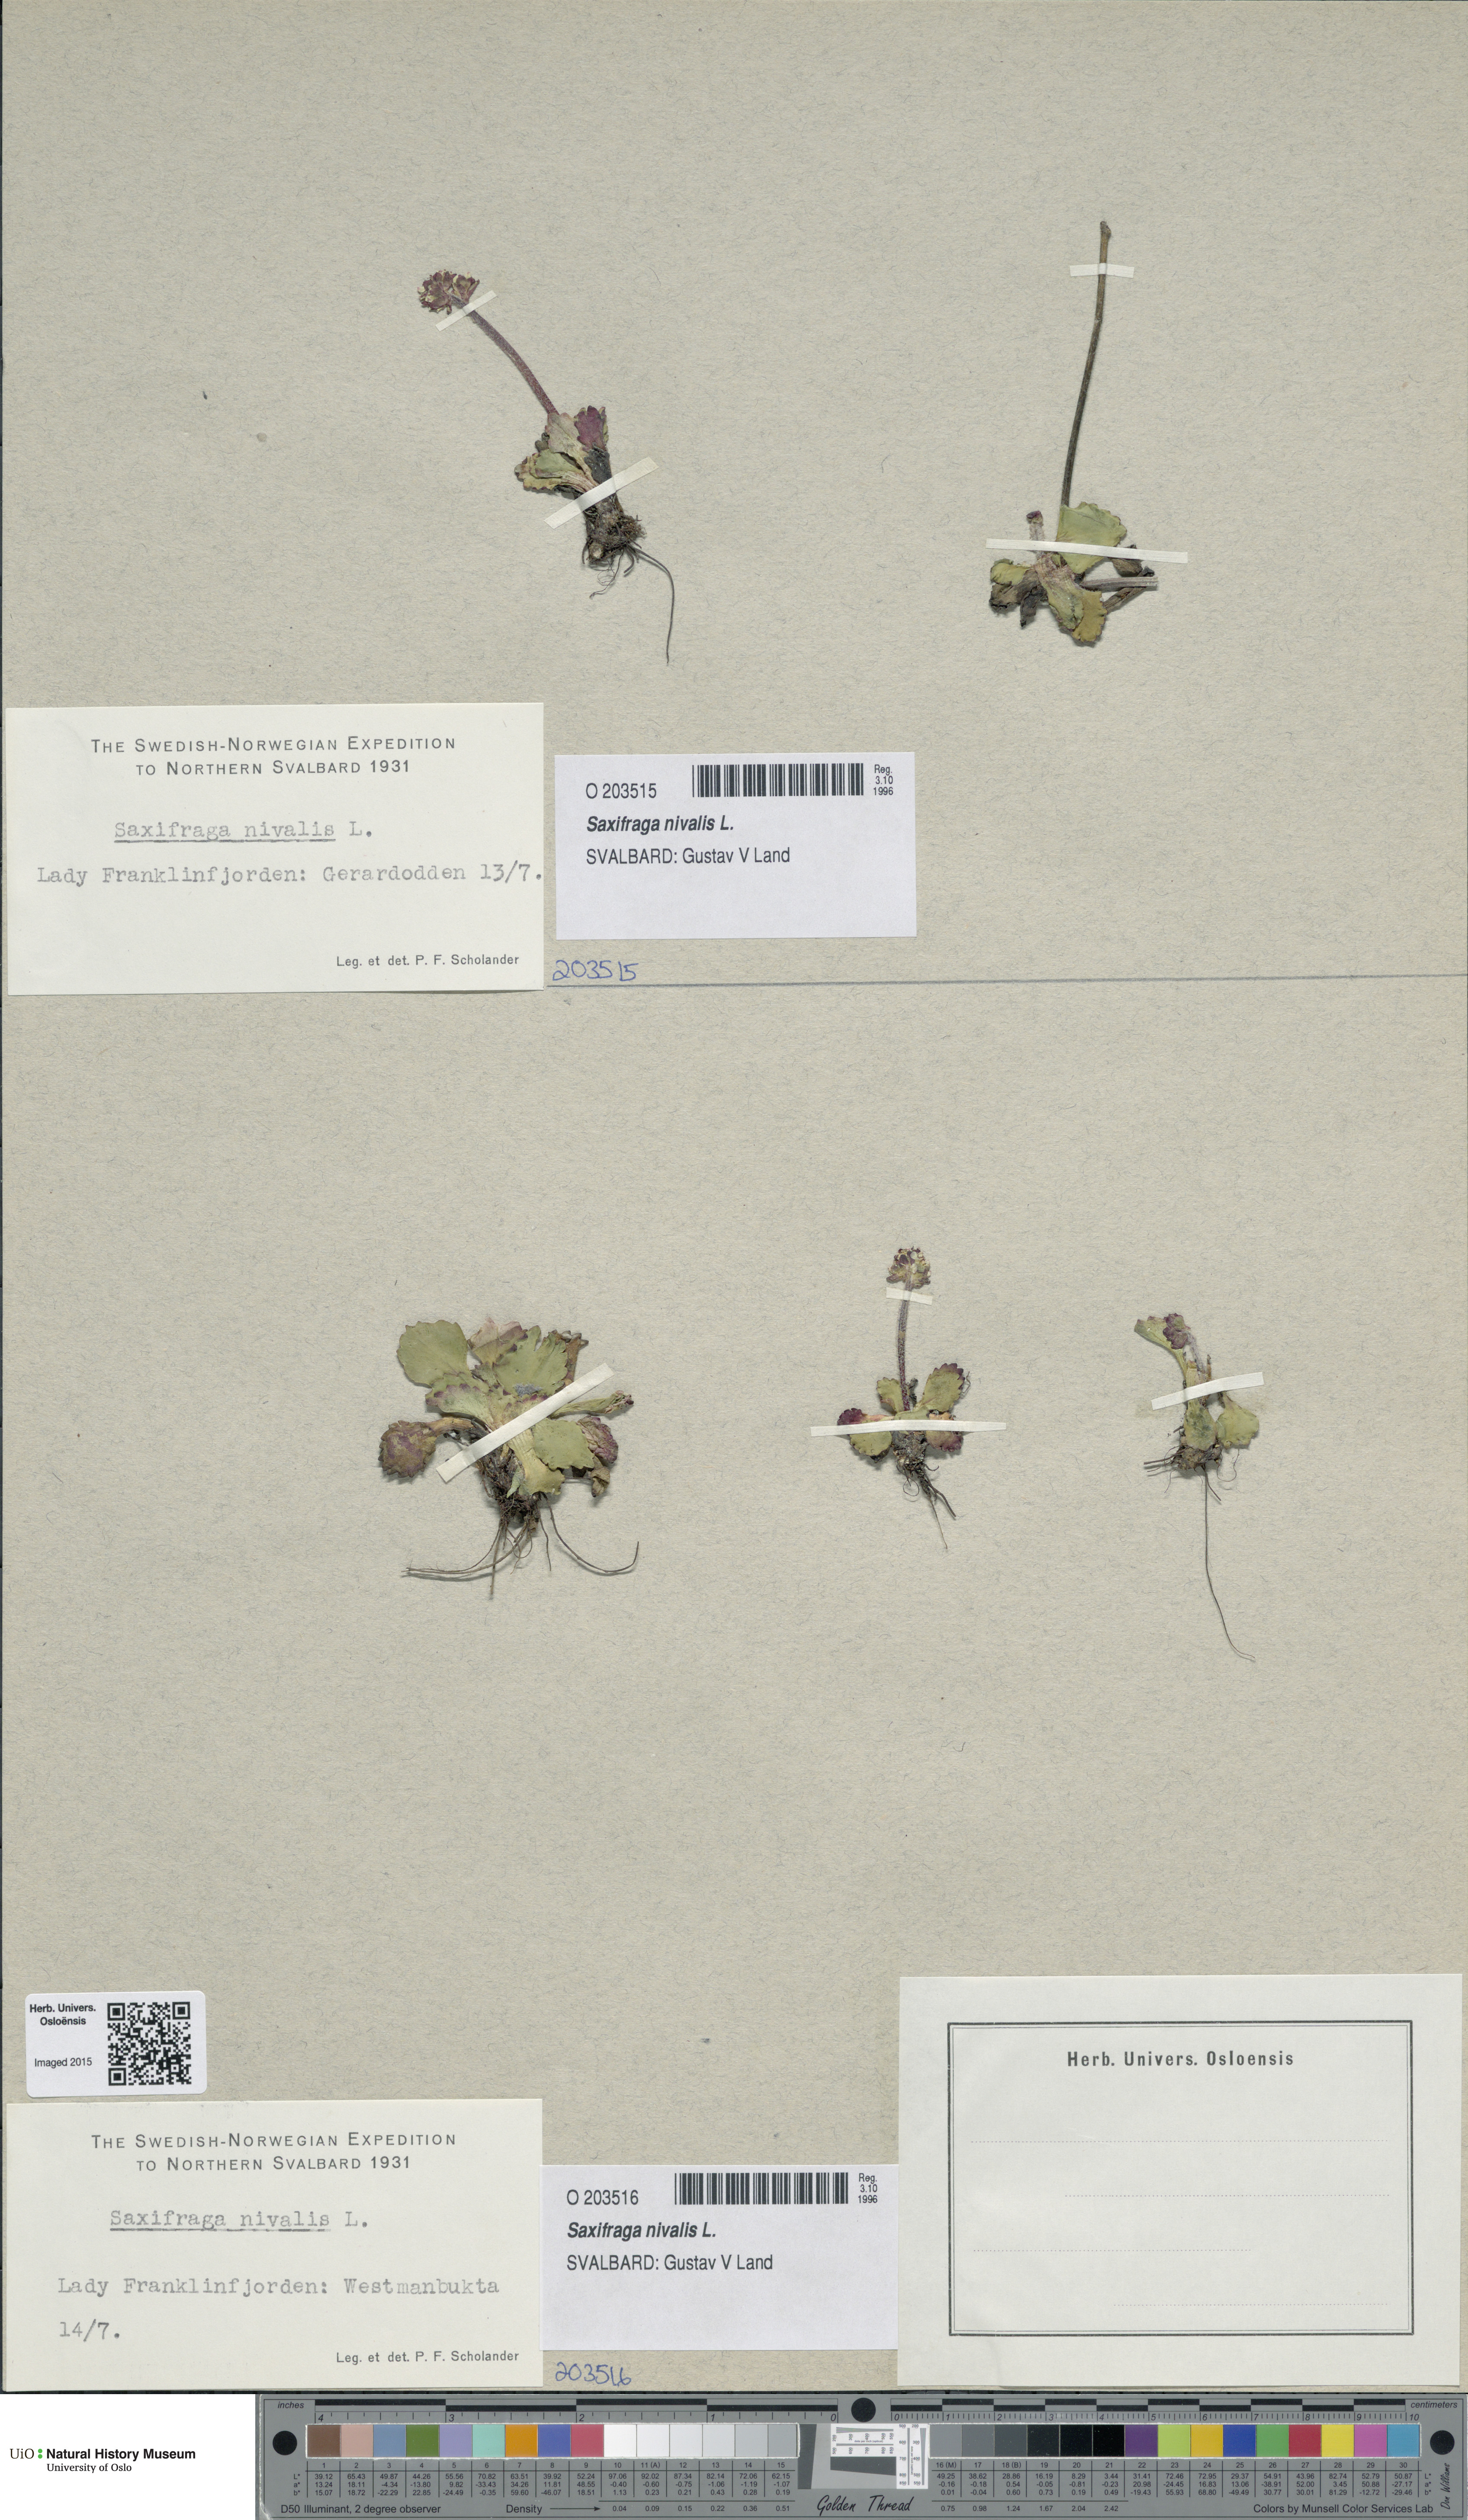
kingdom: Plantae
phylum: Tracheophyta
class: Magnoliopsida
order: Saxifragales
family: Saxifragaceae
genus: Micranthes
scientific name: Micranthes nivalis
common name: Alpine saxifrage
